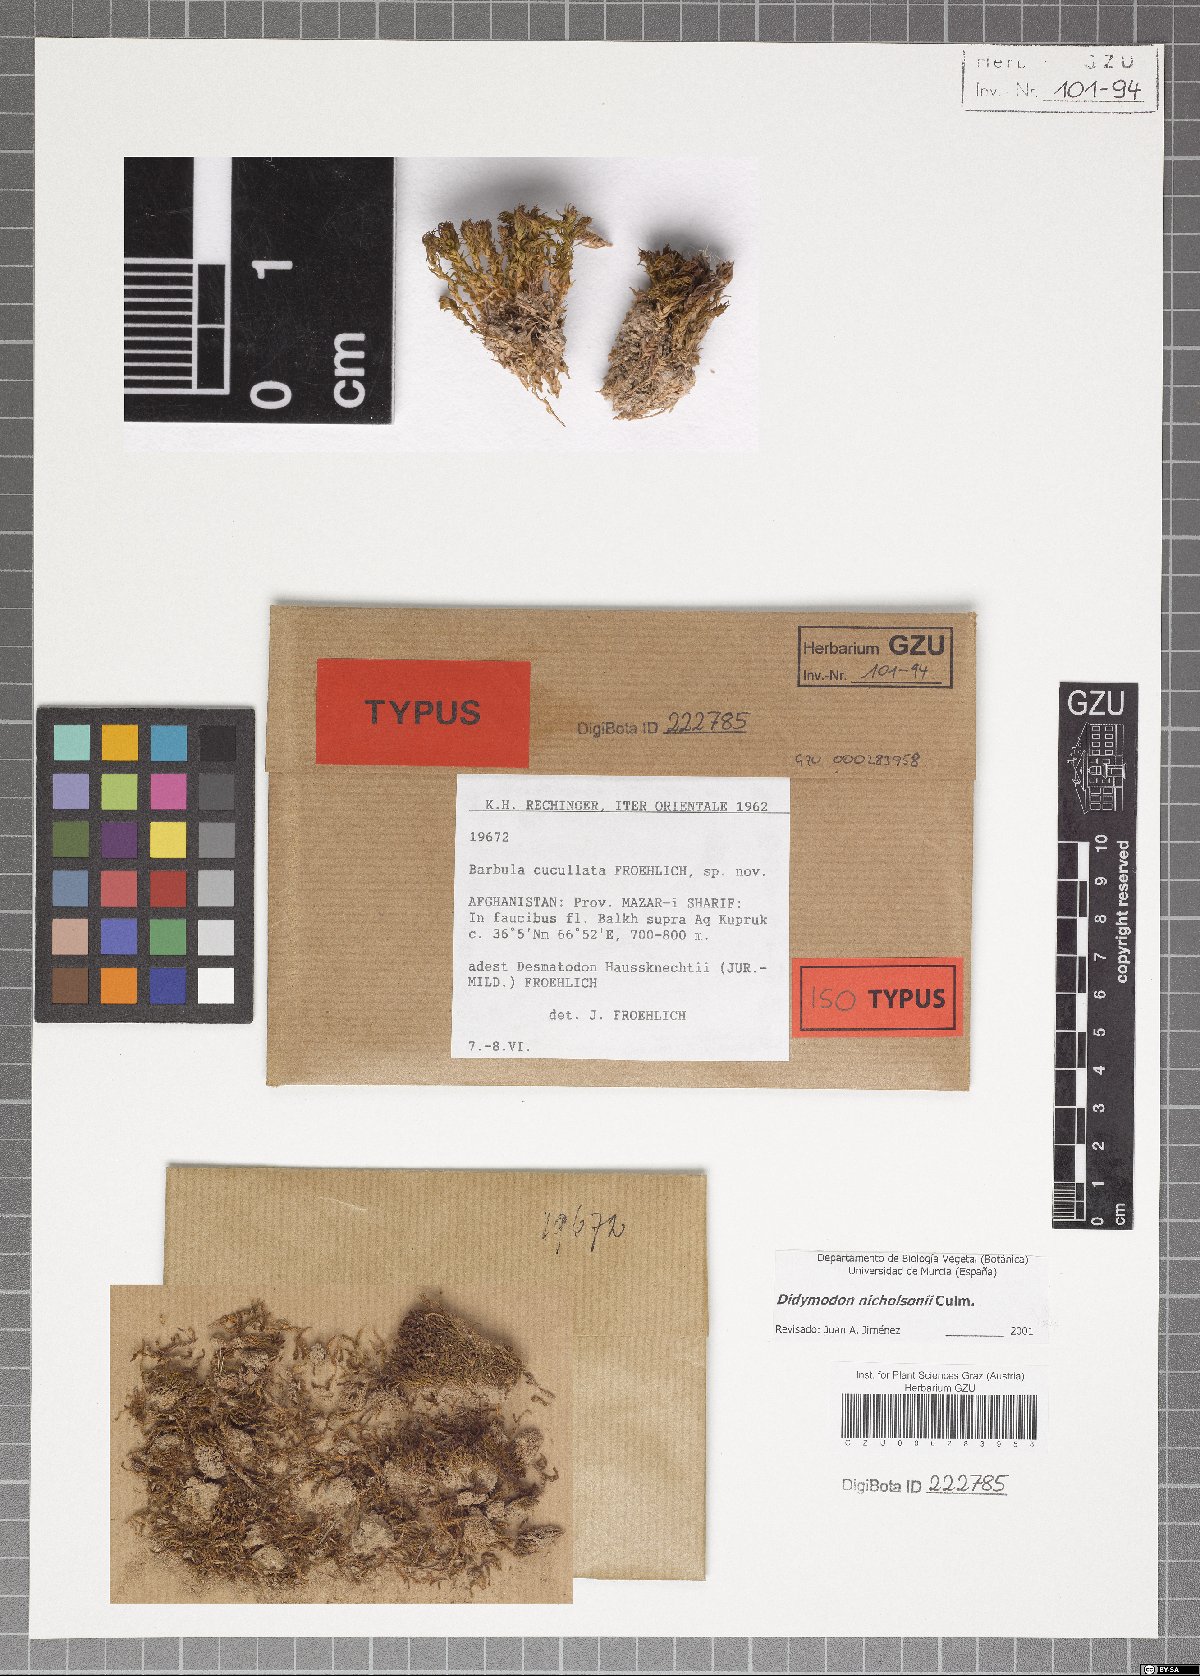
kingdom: Plantae
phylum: Bryophyta
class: Bryopsida
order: Pottiales
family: Pottiaceae
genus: Vinealobryum
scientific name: Vinealobryum nicholsonii
